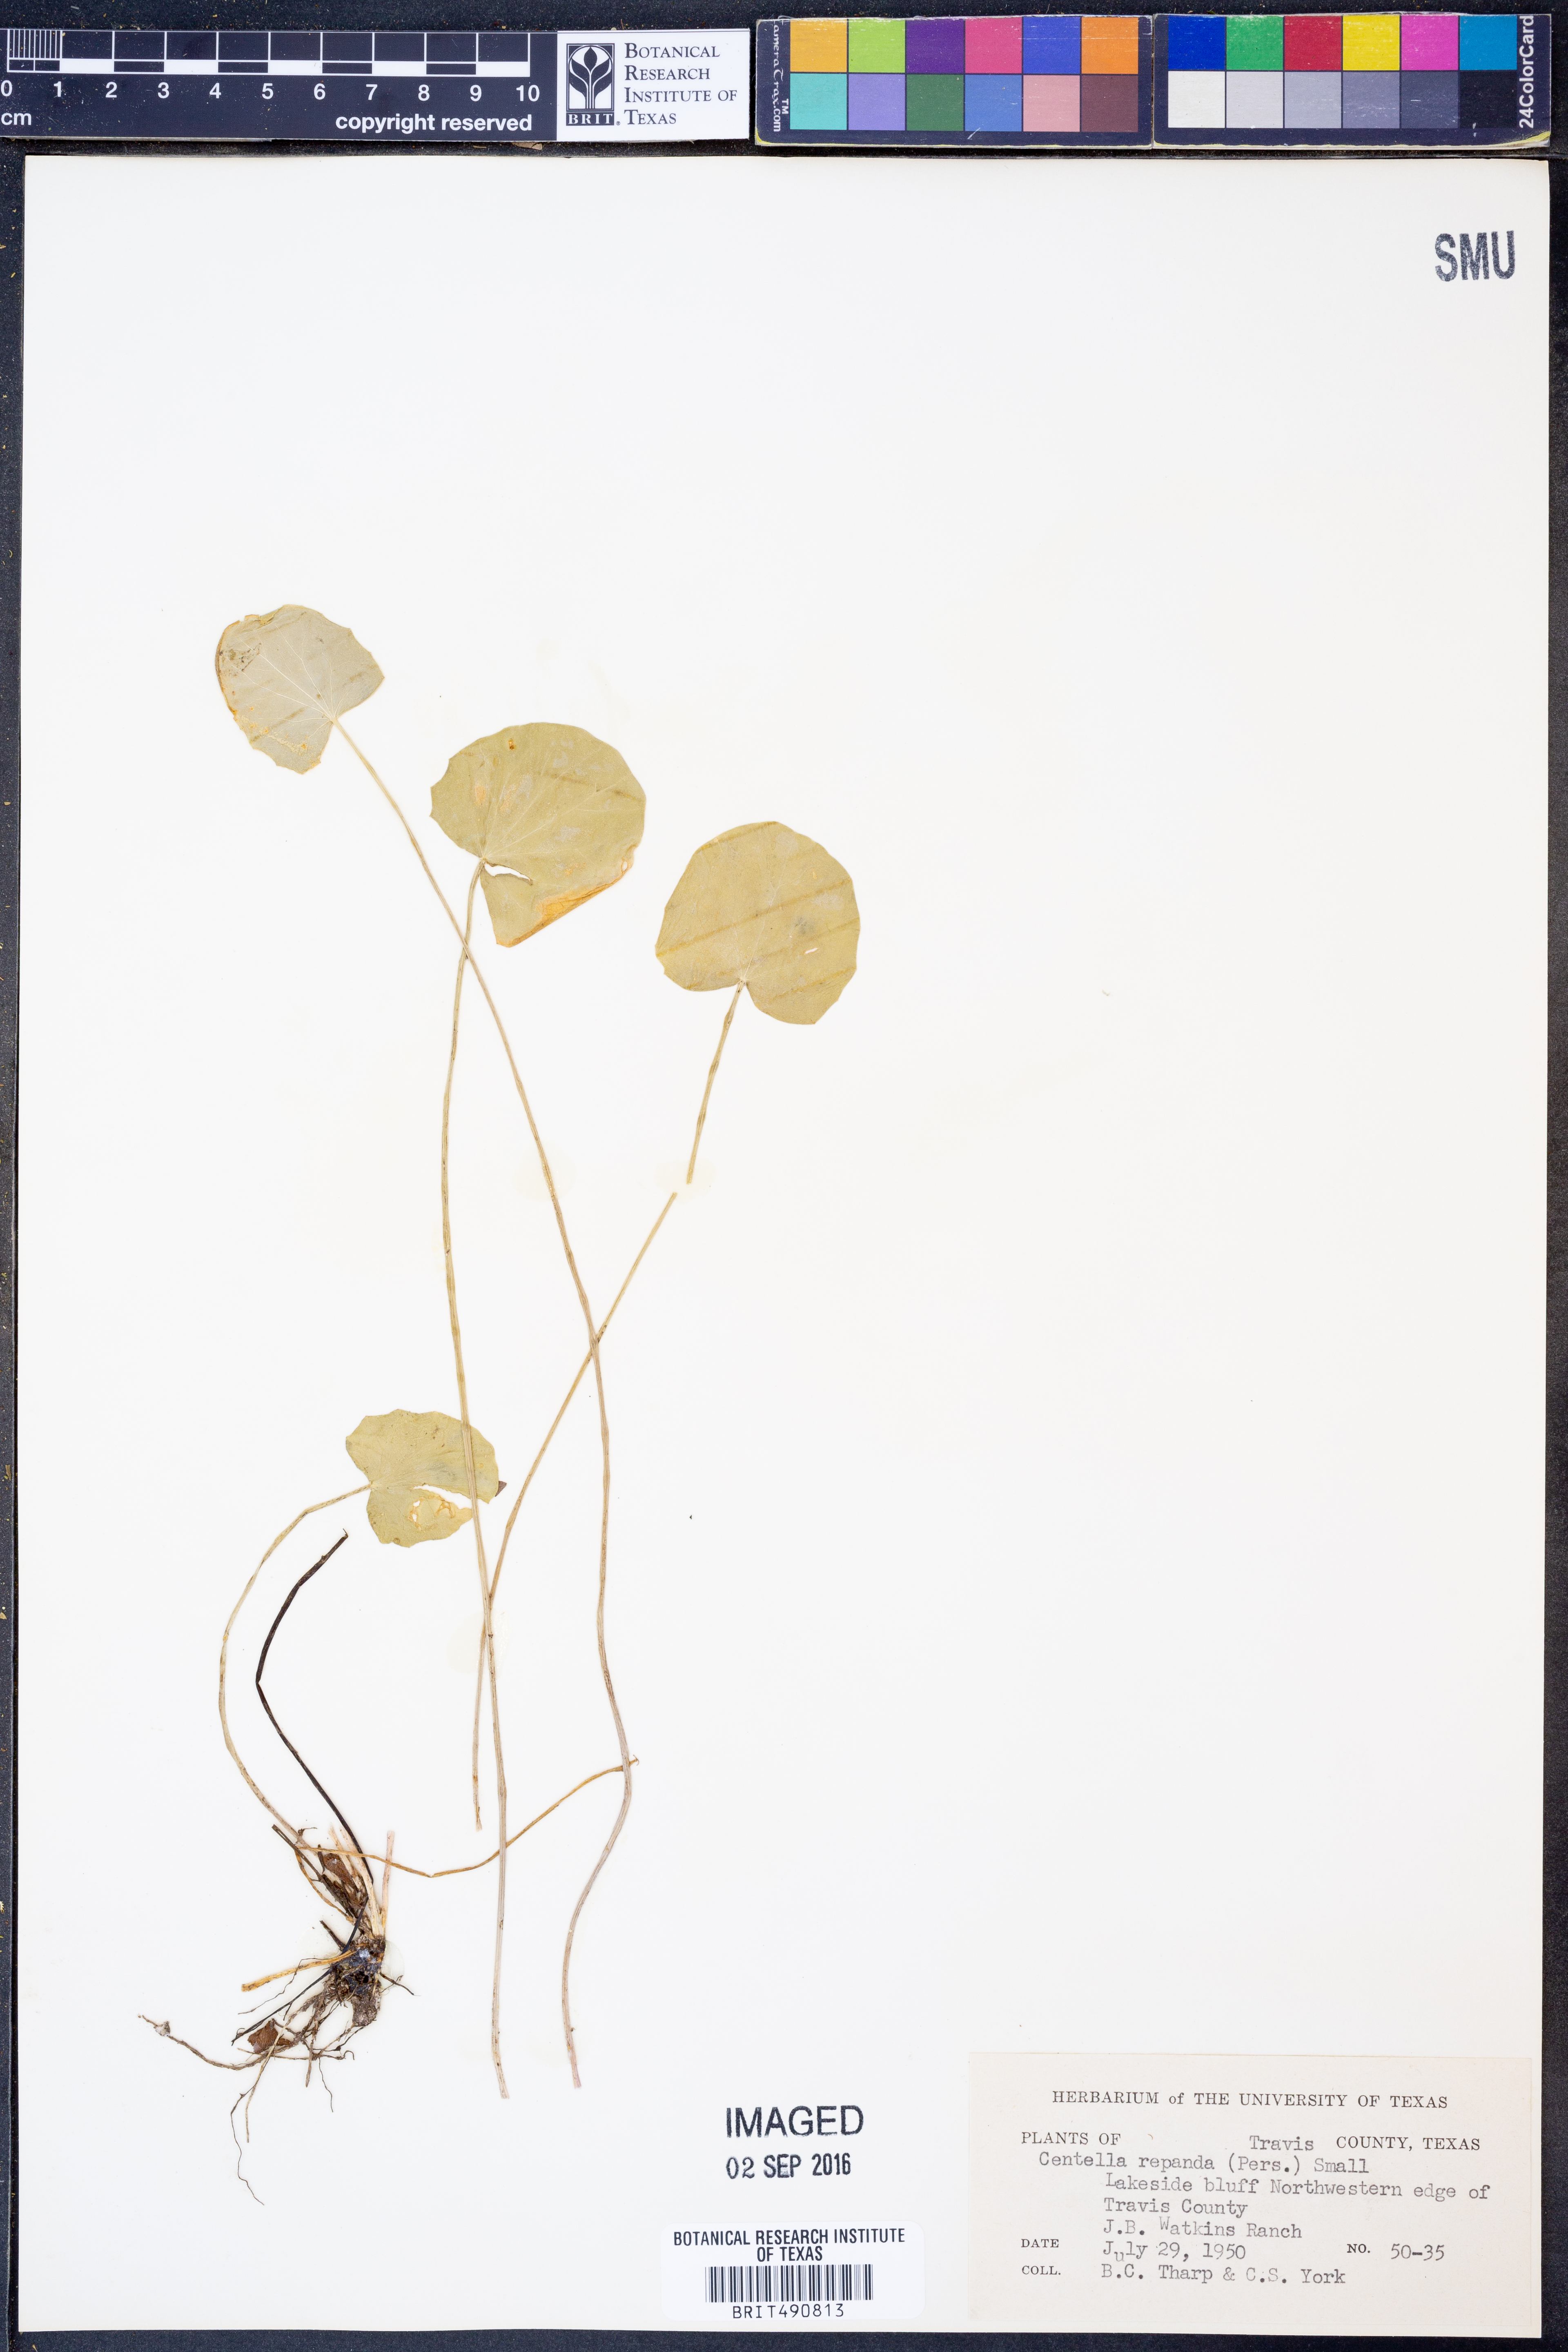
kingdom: Plantae
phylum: Tracheophyta
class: Magnoliopsida
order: Apiales
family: Apiaceae
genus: Centella
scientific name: Centella erecta
